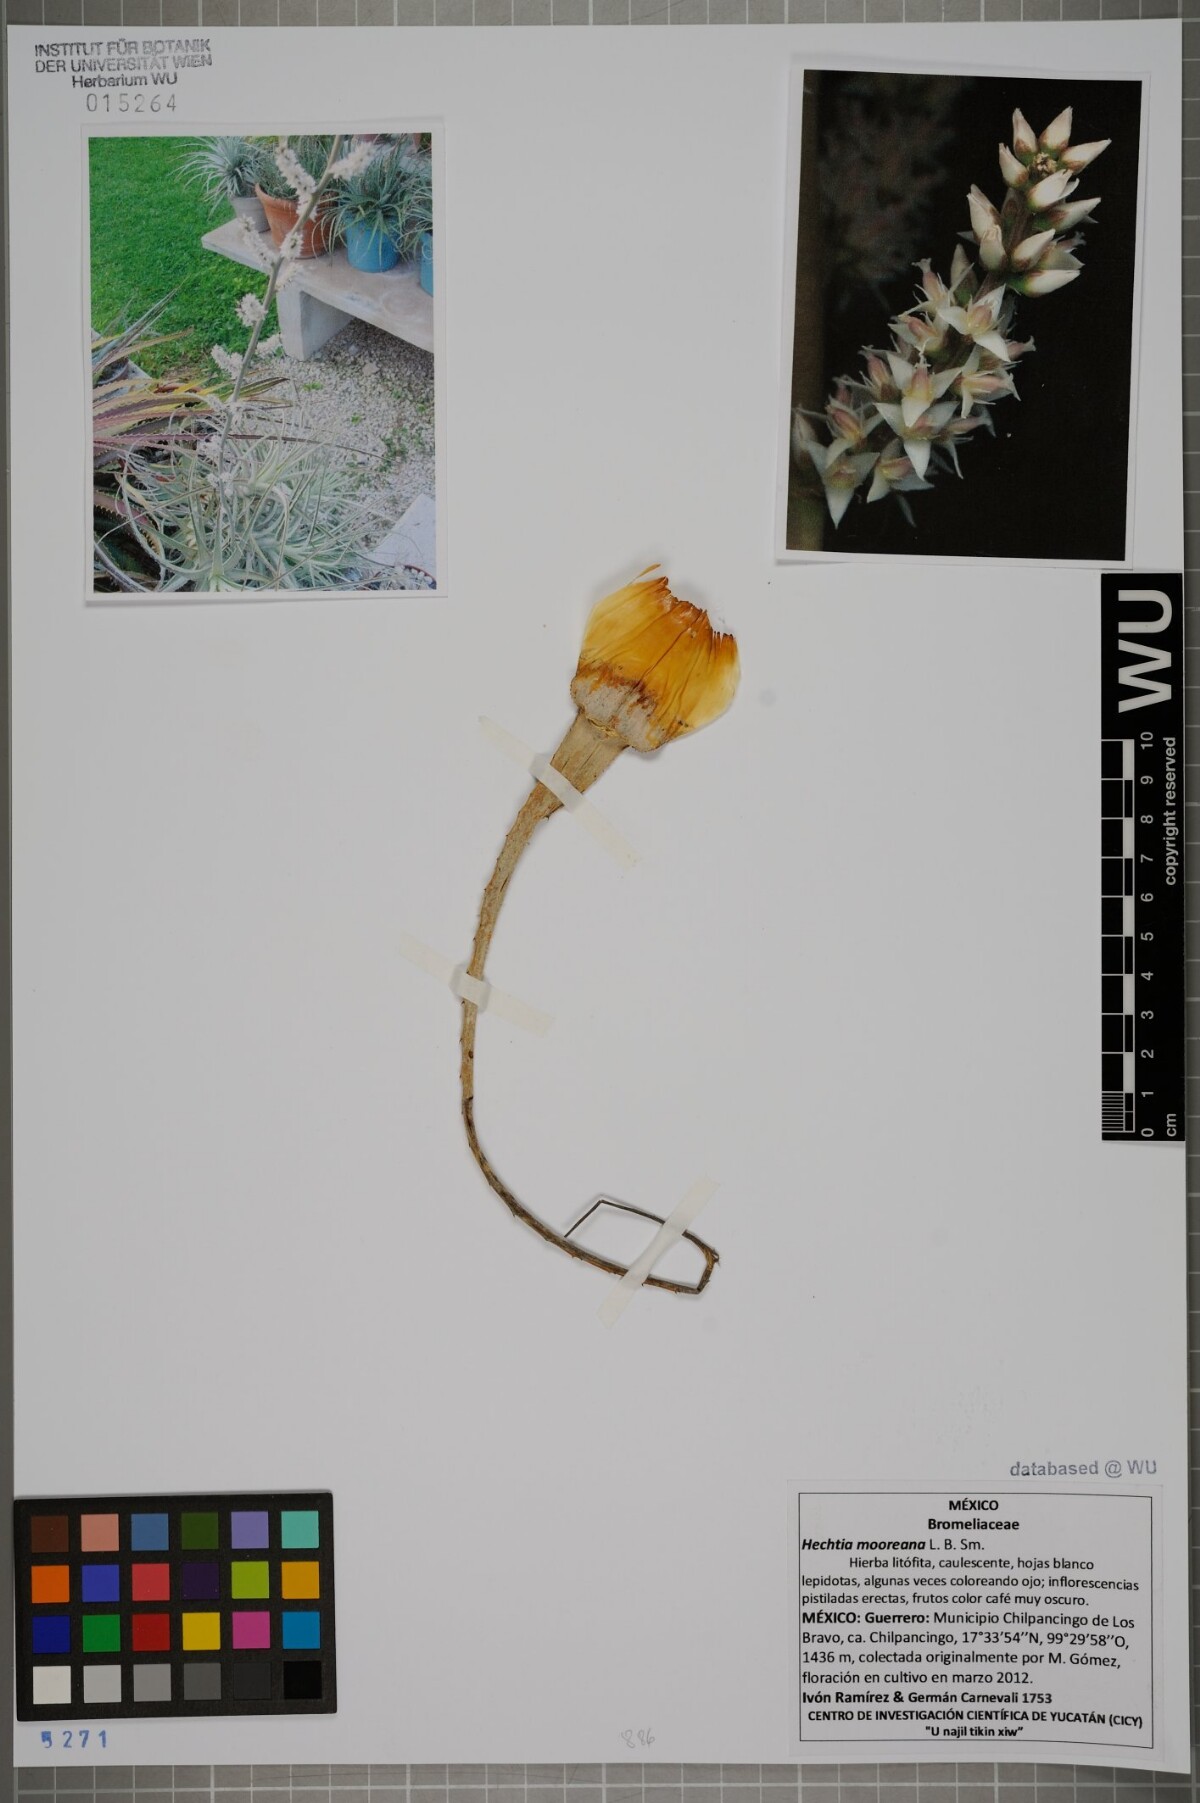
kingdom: Plantae
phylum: Tracheophyta
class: Liliopsida
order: Poales
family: Bromeliaceae
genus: Hechtia
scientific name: Hechtia mooreana
